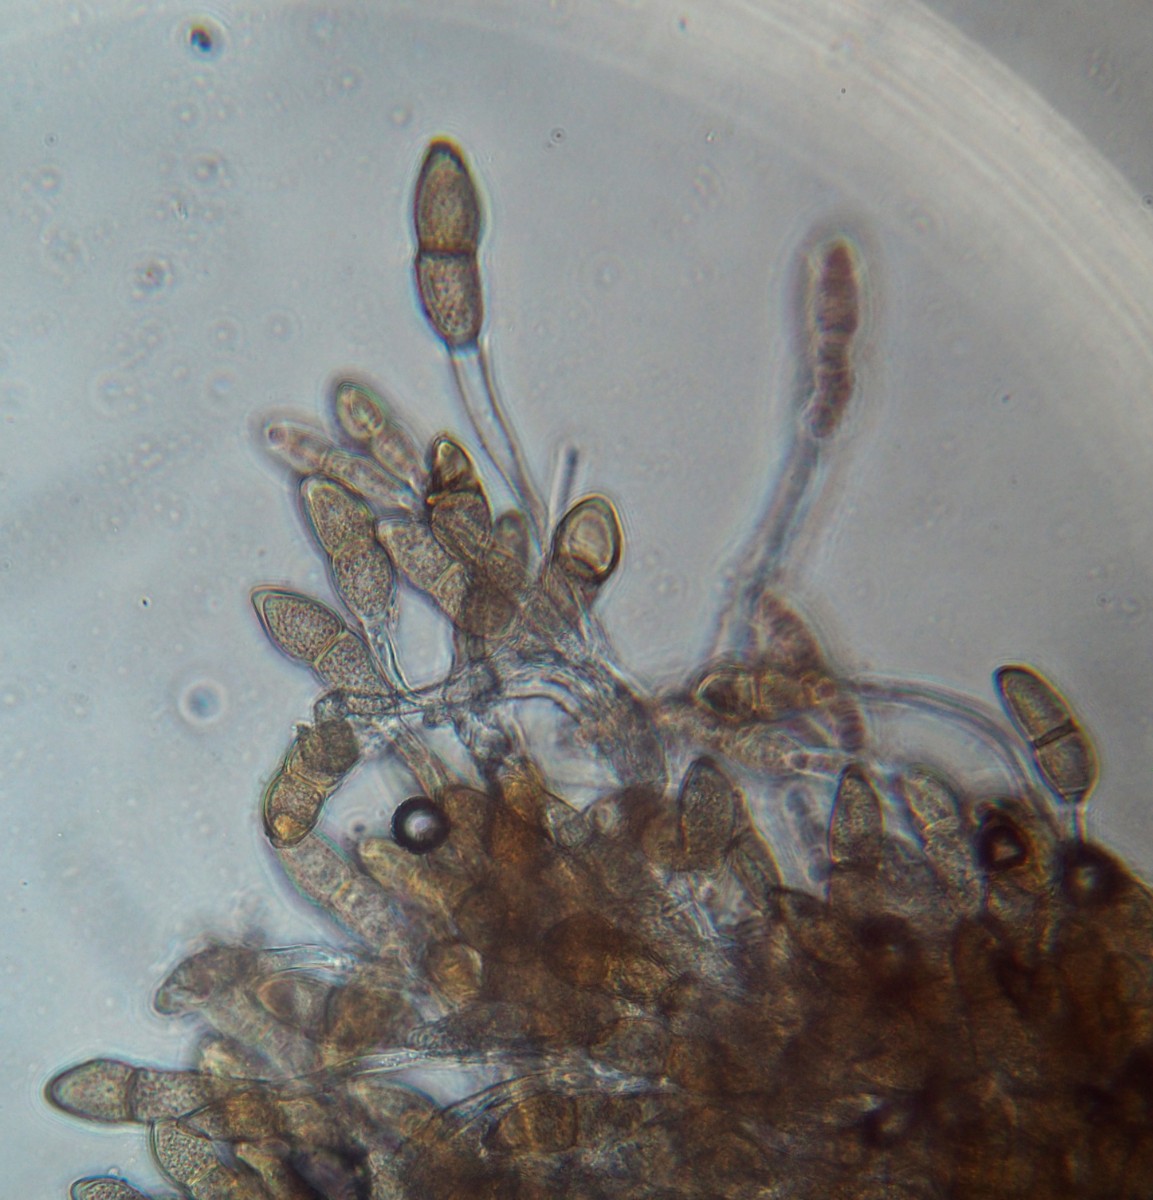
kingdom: Fungi
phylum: Basidiomycota
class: Pucciniomycetes
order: Pucciniales
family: Pucciniaceae
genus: Puccinia
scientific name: Puccinia malvacearum
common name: stokrose-tvecellerust
